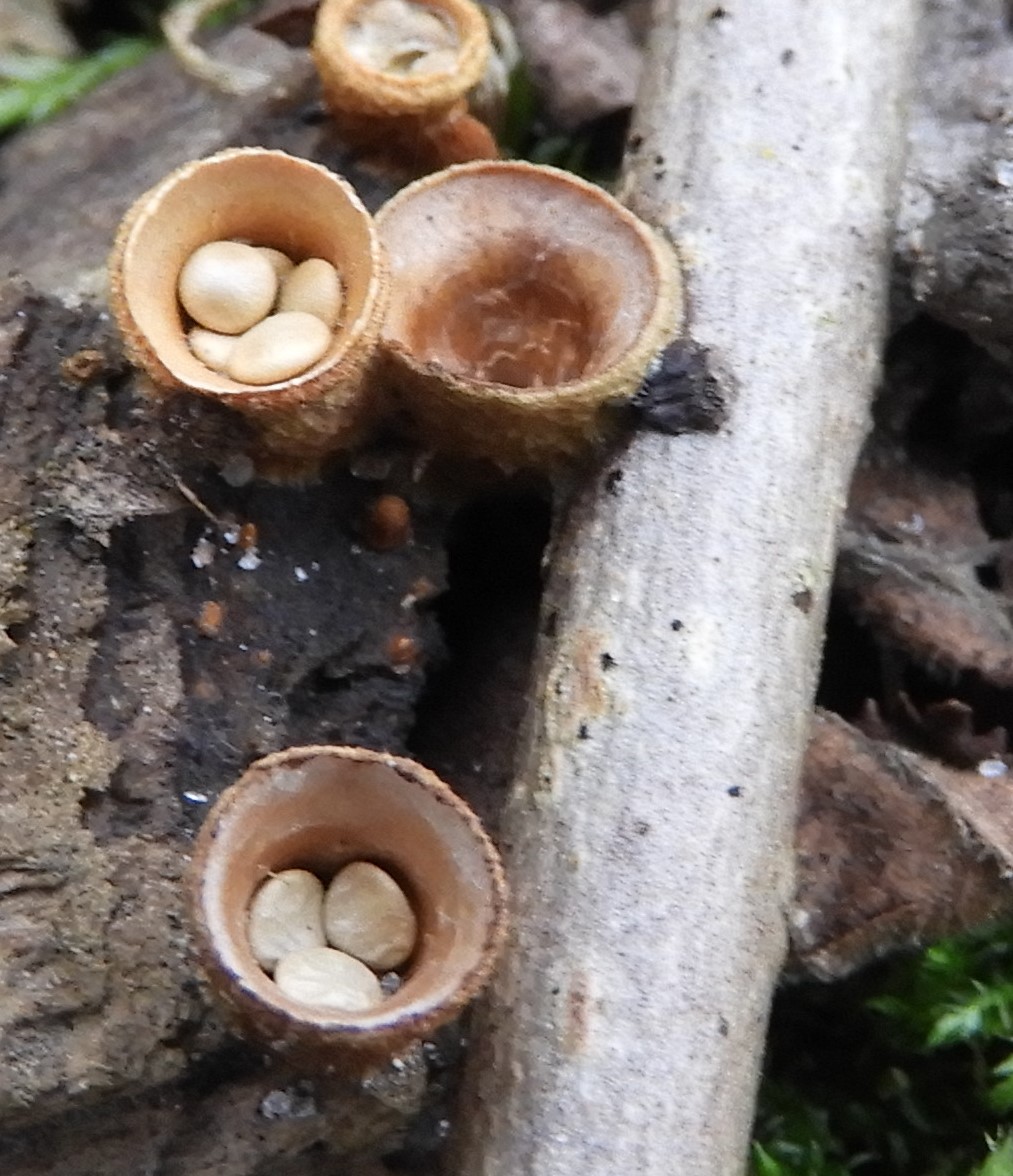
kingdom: Fungi
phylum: Basidiomycota
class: Agaricomycetes
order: Agaricales
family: Nidulariaceae
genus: Crucibulum
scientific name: Crucibulum crucibuliforme
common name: krukkesvamp
